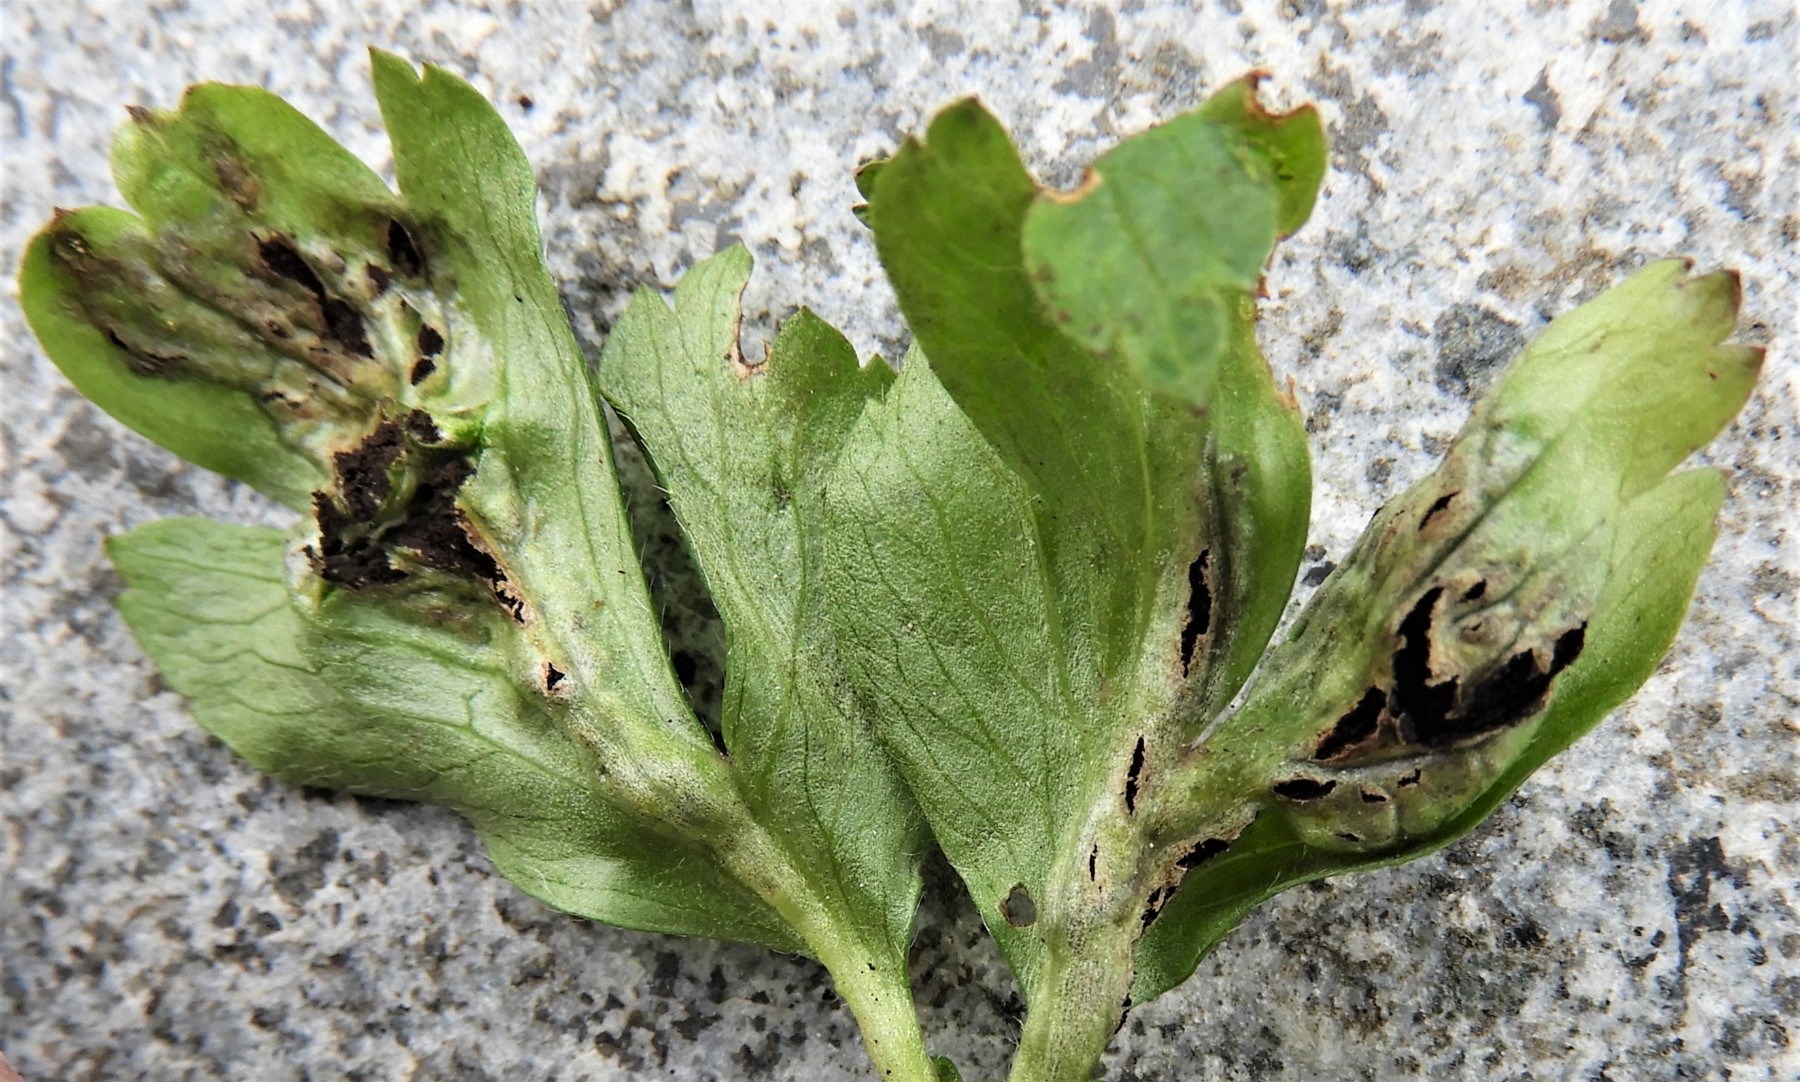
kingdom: Fungi
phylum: Basidiomycota
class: Ustilaginomycetes
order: Urocystidales
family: Urocystidaceae
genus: Urocystis
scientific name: Urocystis anemones
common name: anemone-brand
